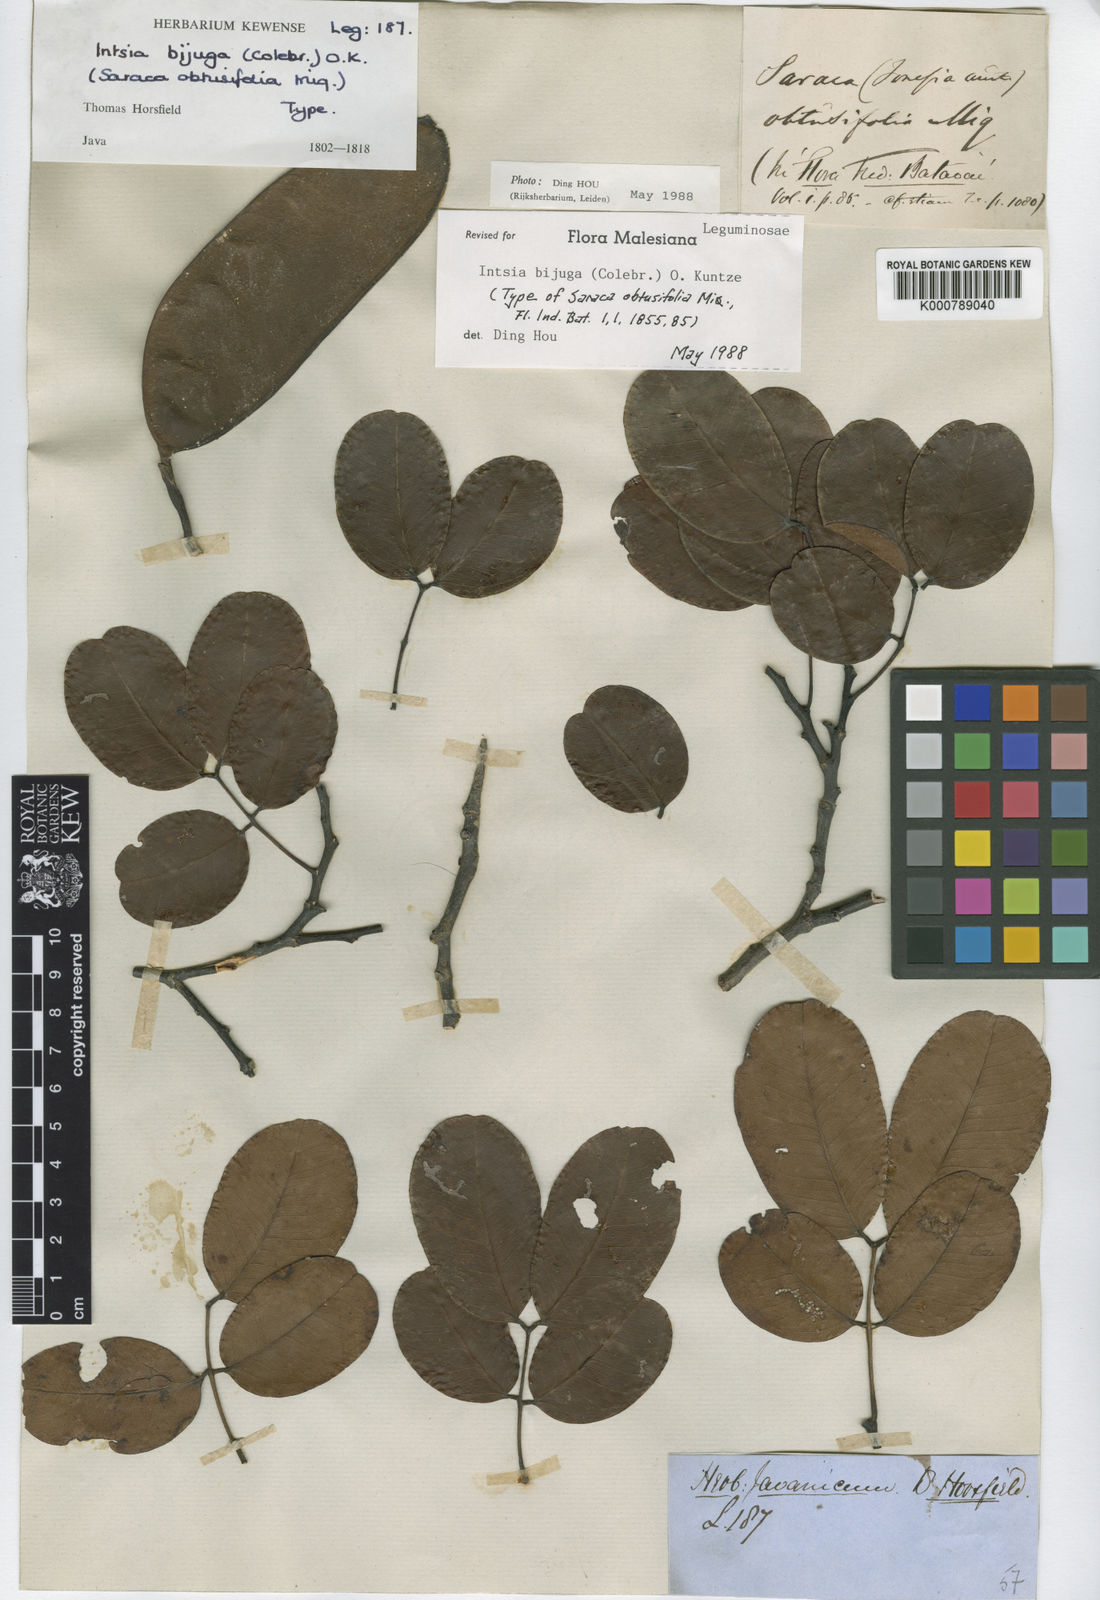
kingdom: Plantae
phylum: Tracheophyta
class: Magnoliopsida
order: Fabales
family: Fabaceae
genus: Intsia
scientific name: Intsia bijuga
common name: Moluccan ironwood
